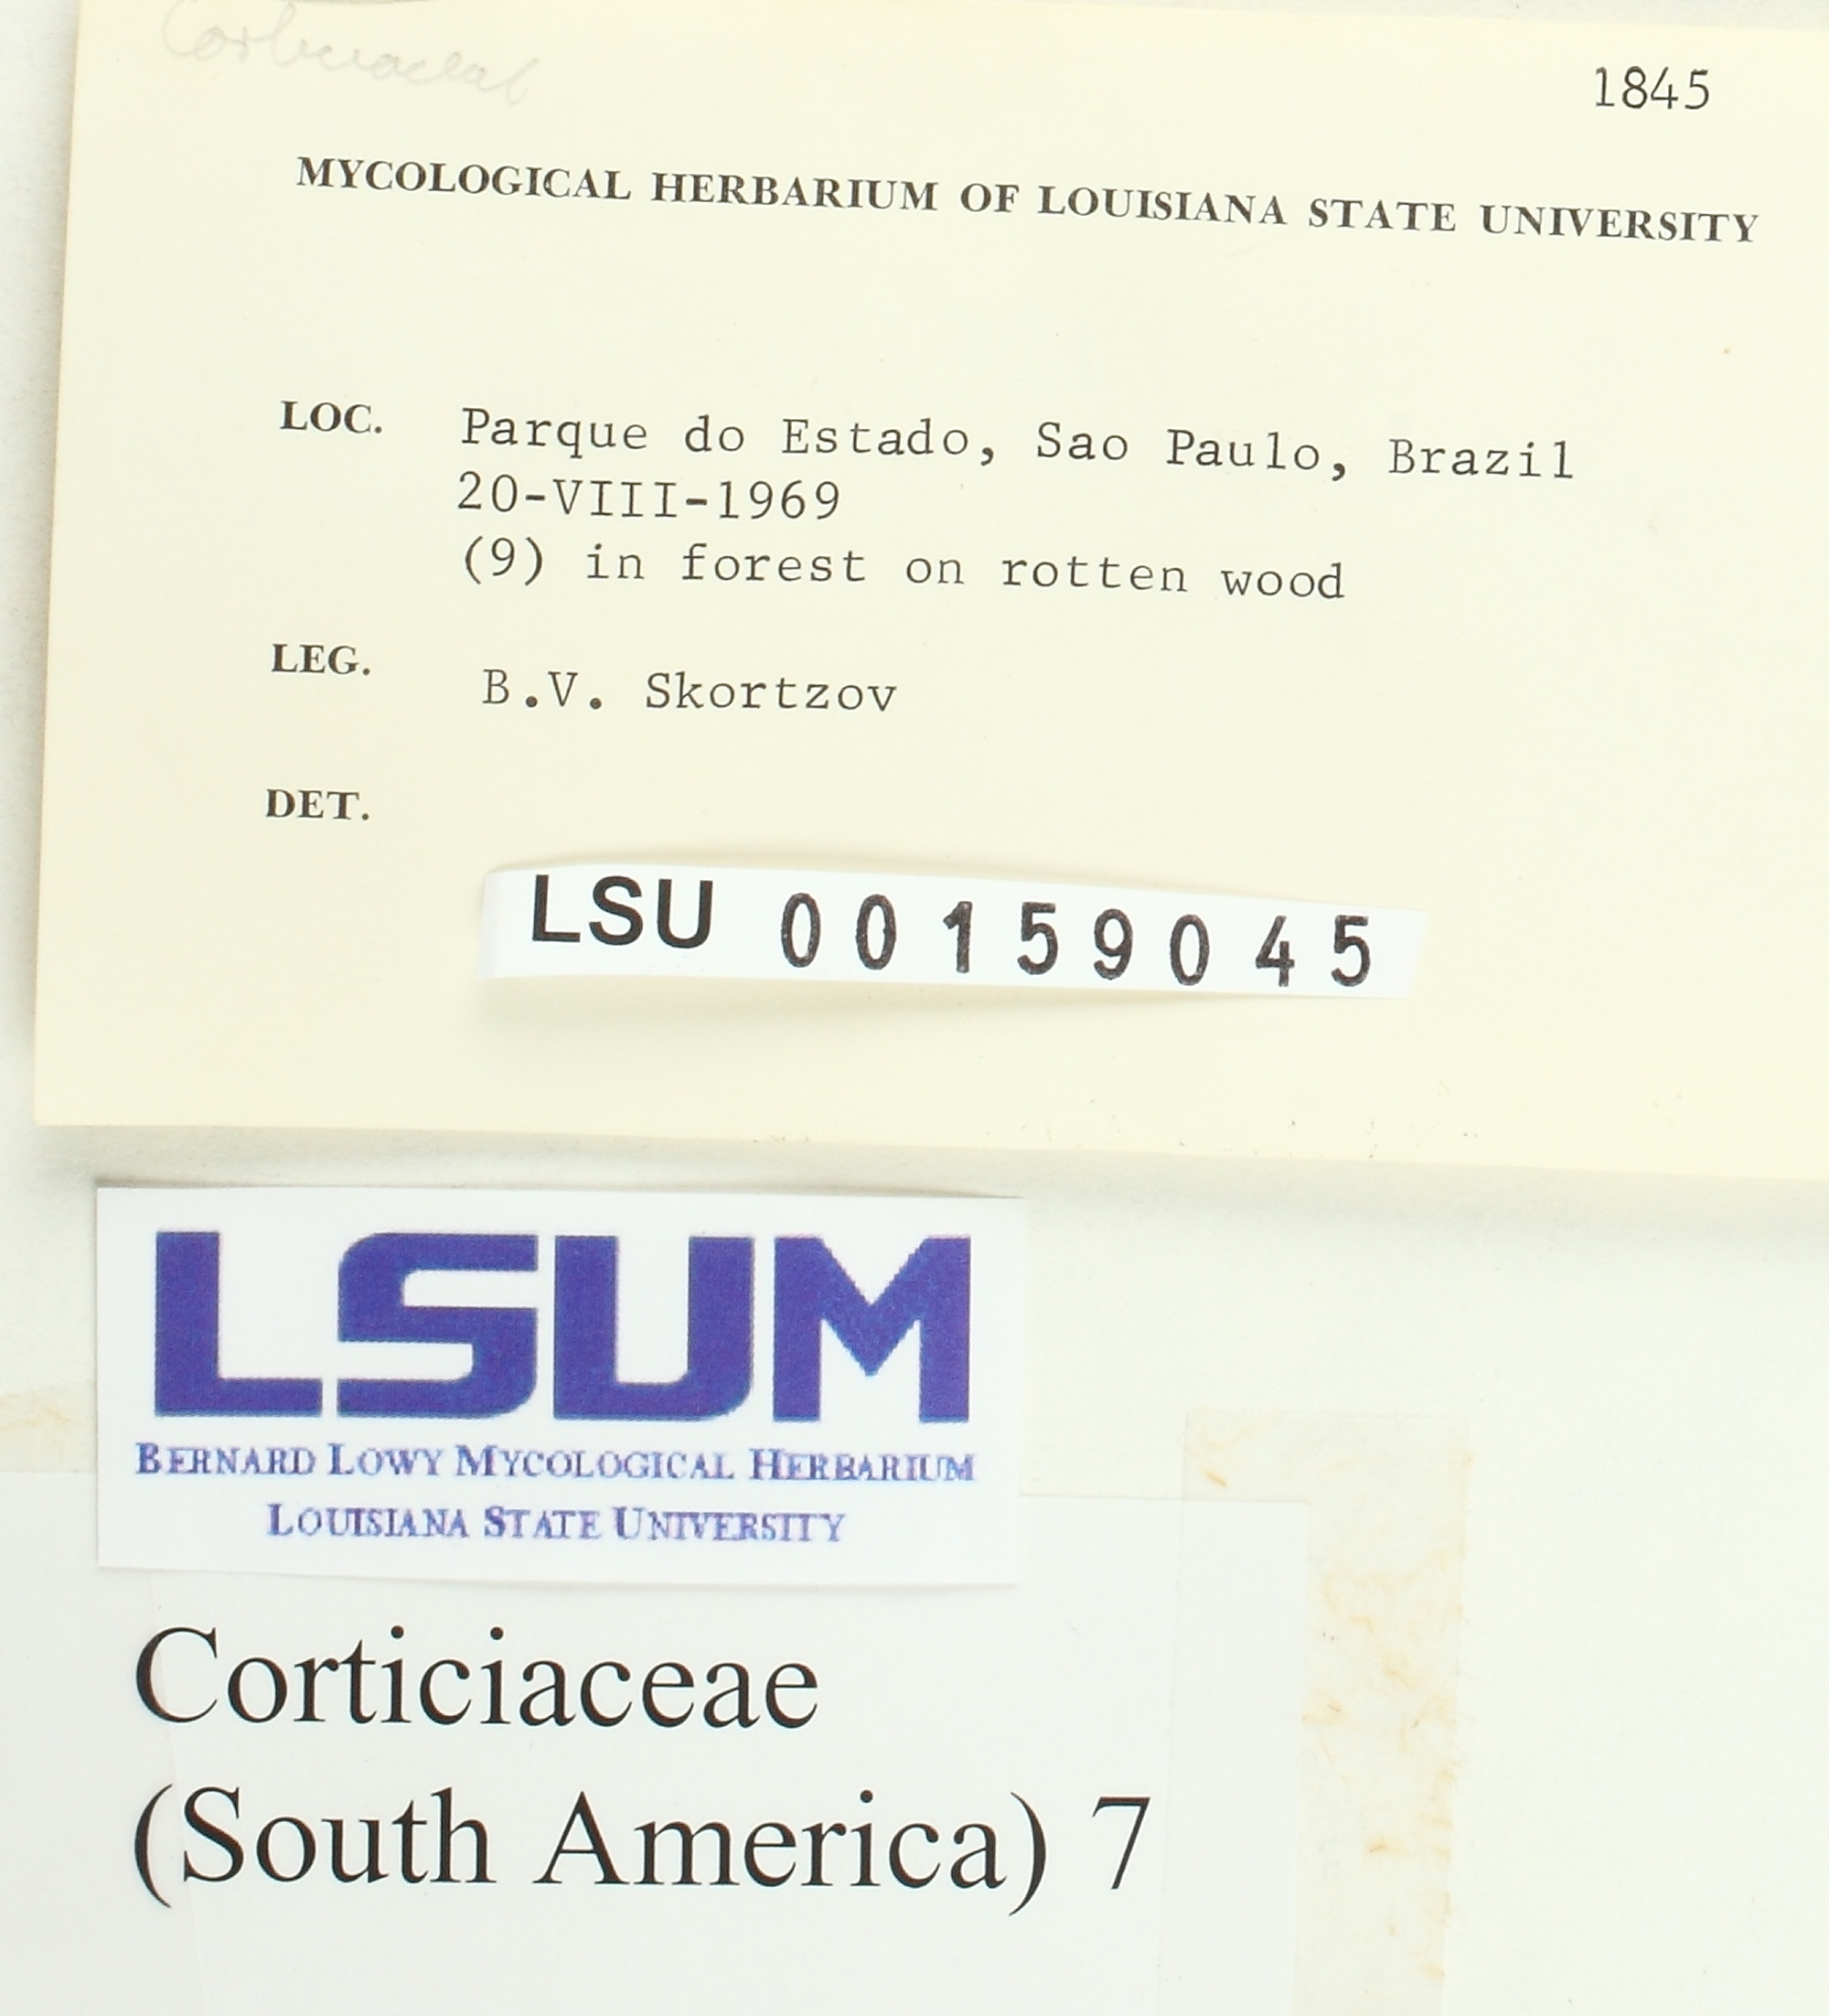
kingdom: Fungi
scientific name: Fungi
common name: Fungi
